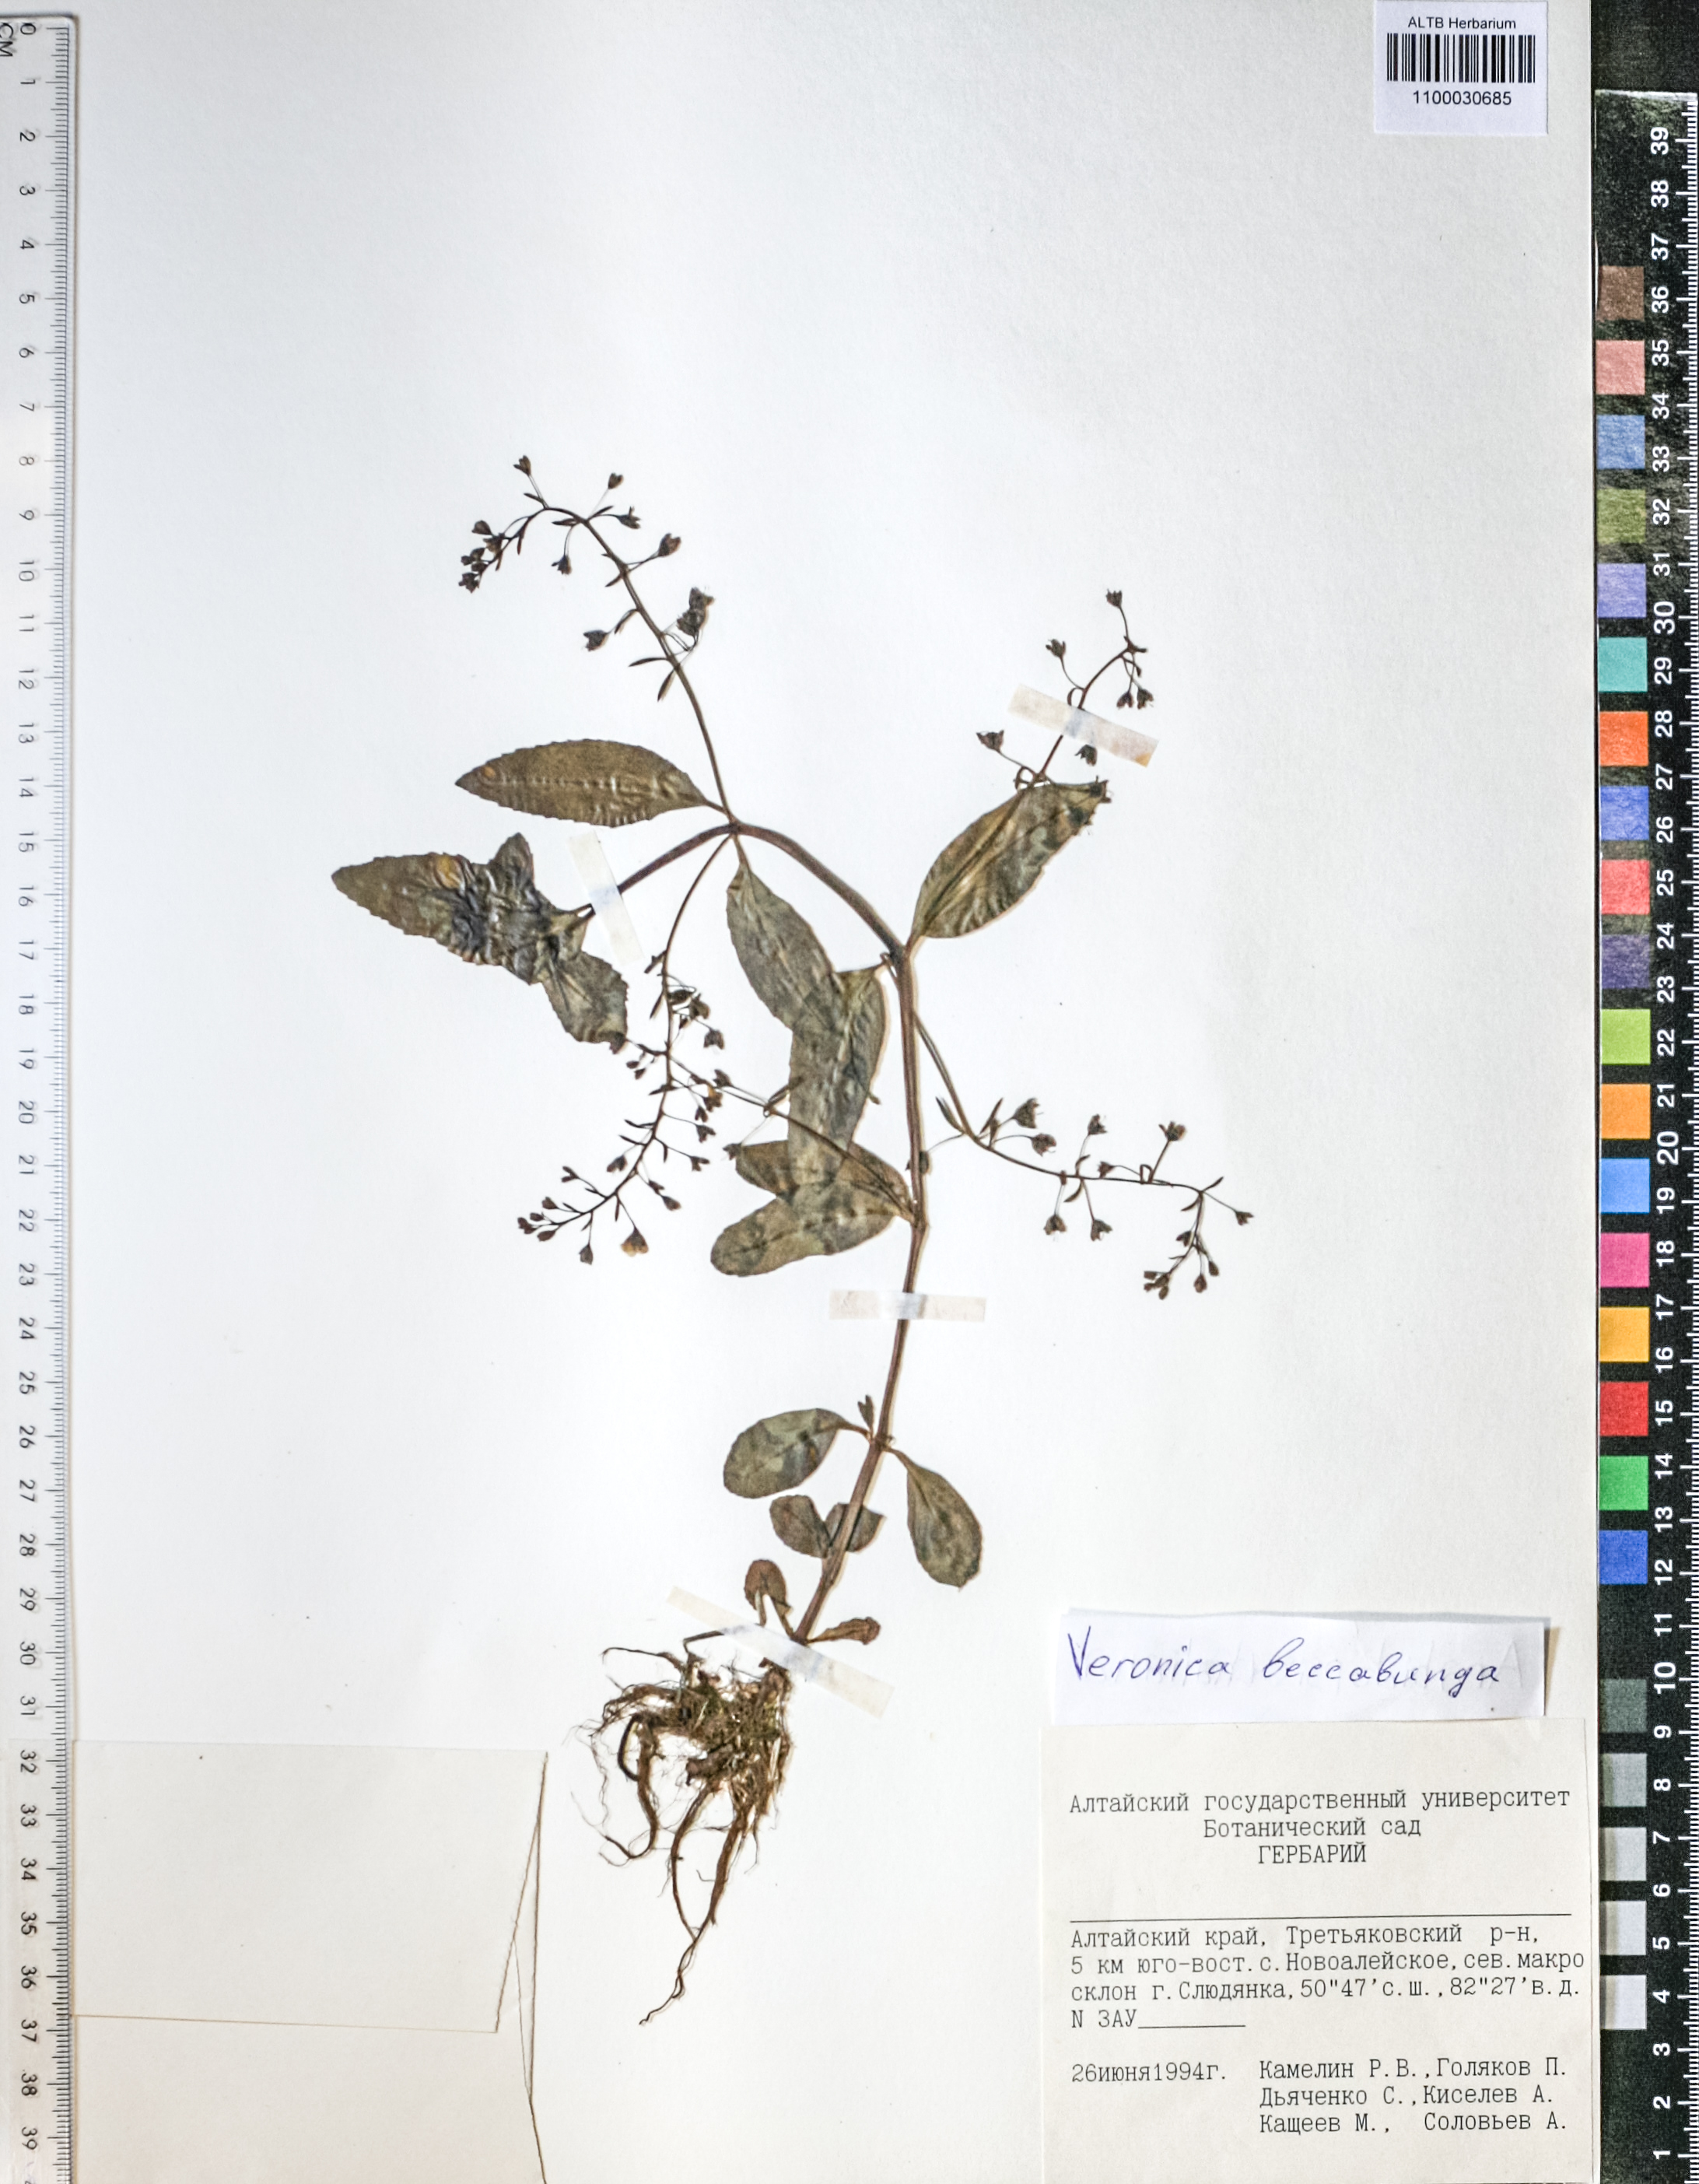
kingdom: Plantae
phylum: Tracheophyta
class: Magnoliopsida
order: Lamiales
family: Plantaginaceae
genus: Veronica
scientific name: Veronica beccabunga
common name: Brooklime
